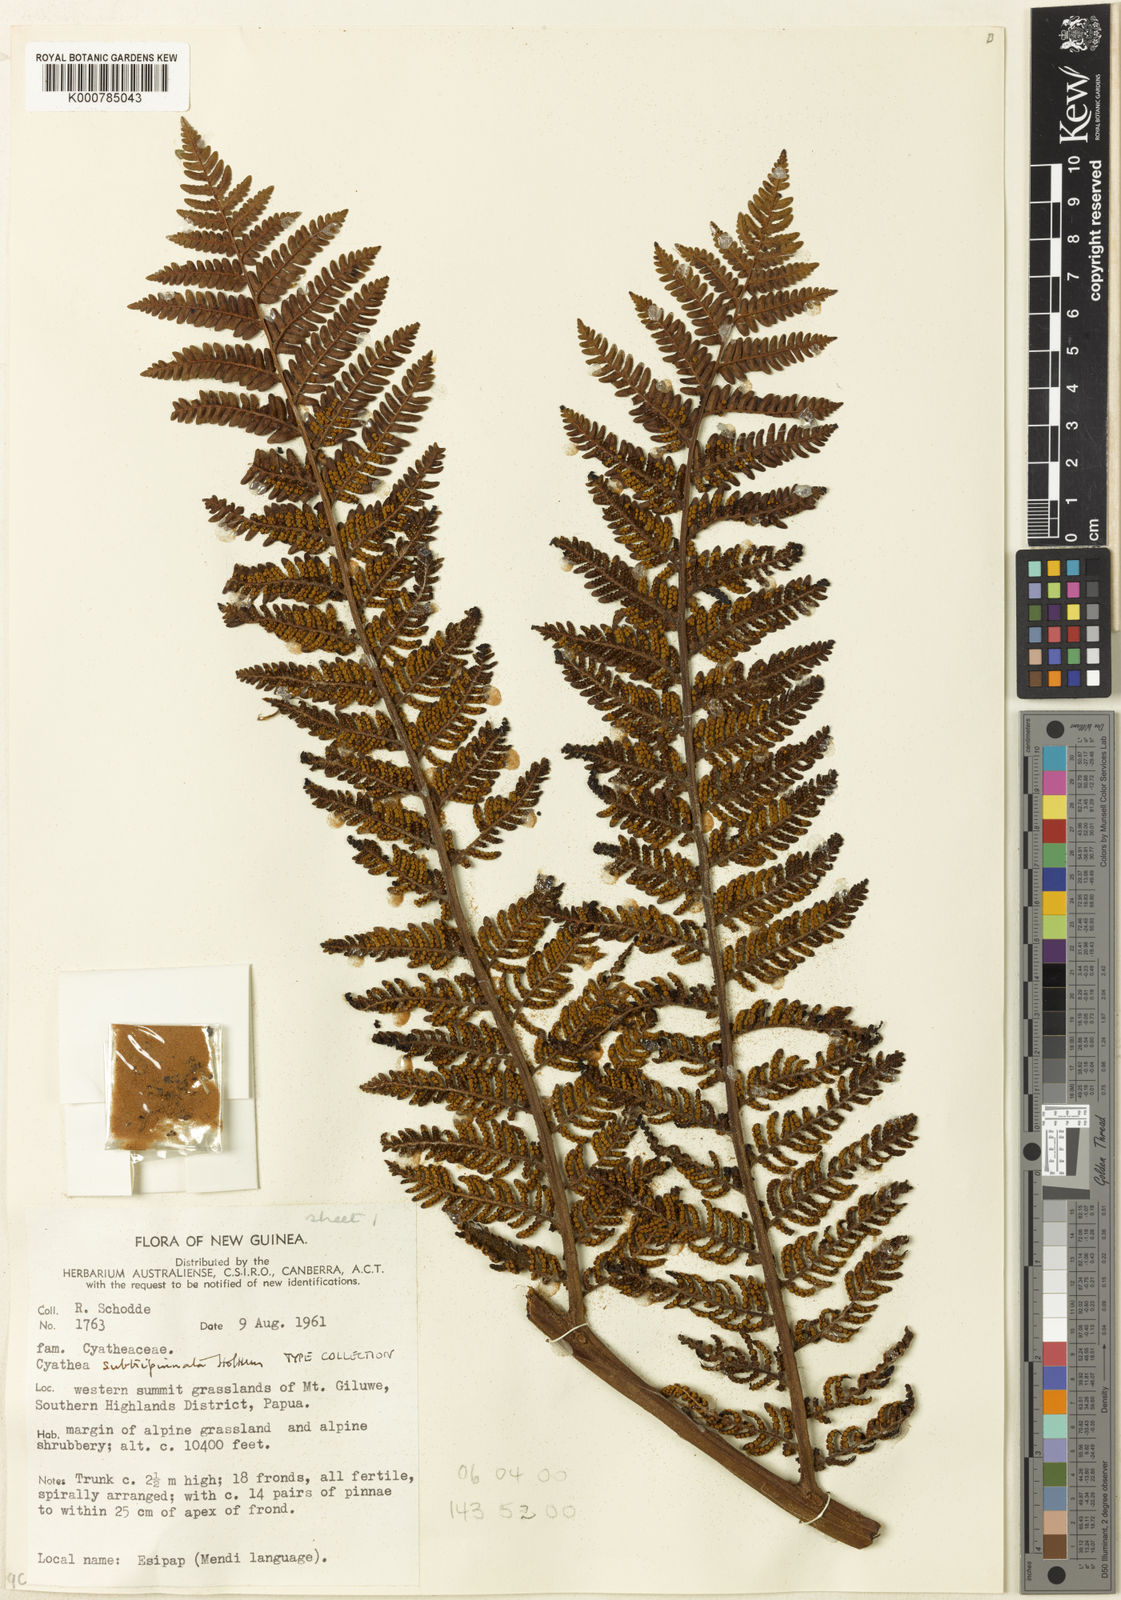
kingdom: Plantae
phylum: Tracheophyta
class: Polypodiopsida
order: Cyatheales
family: Cyatheaceae
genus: Alsophila
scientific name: Alsophila subtripinnata
